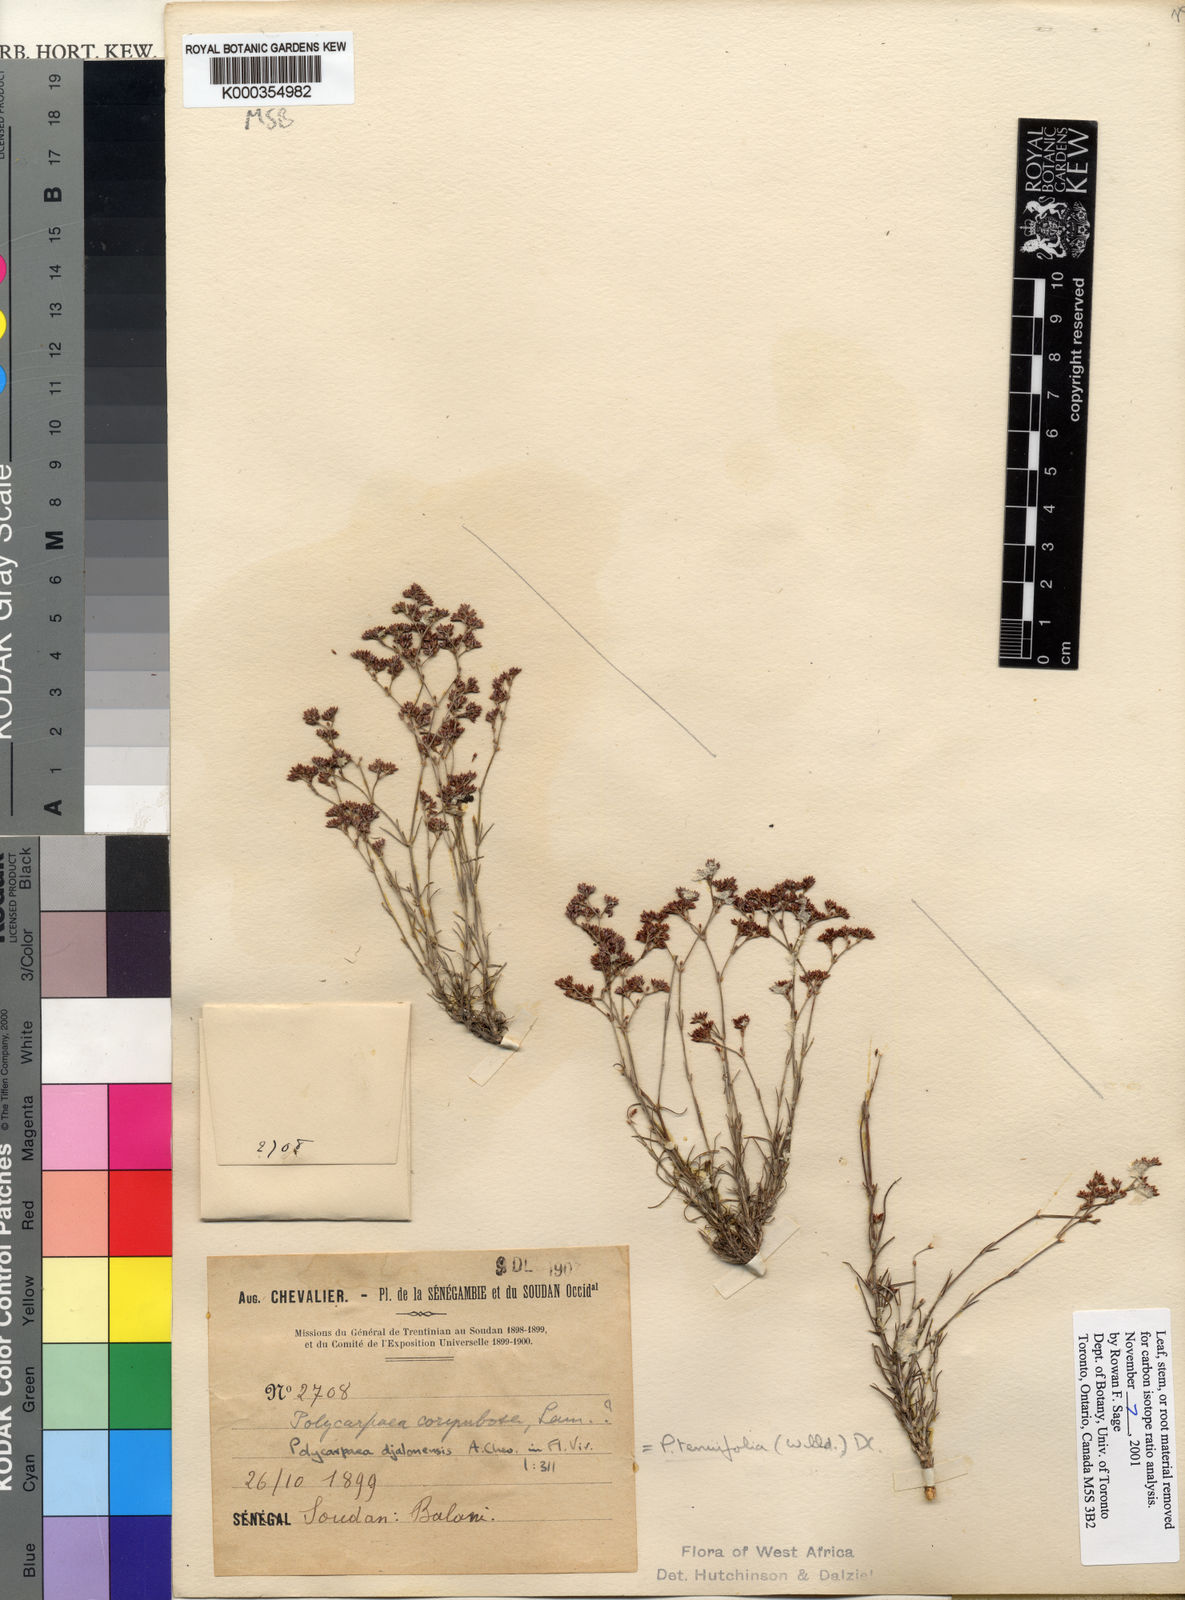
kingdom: Plantae
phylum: Tracheophyta
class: Magnoliopsida
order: Caryophyllales
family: Caryophyllaceae
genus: Polycarpaea
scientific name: Polycarpaea tenuifolia
